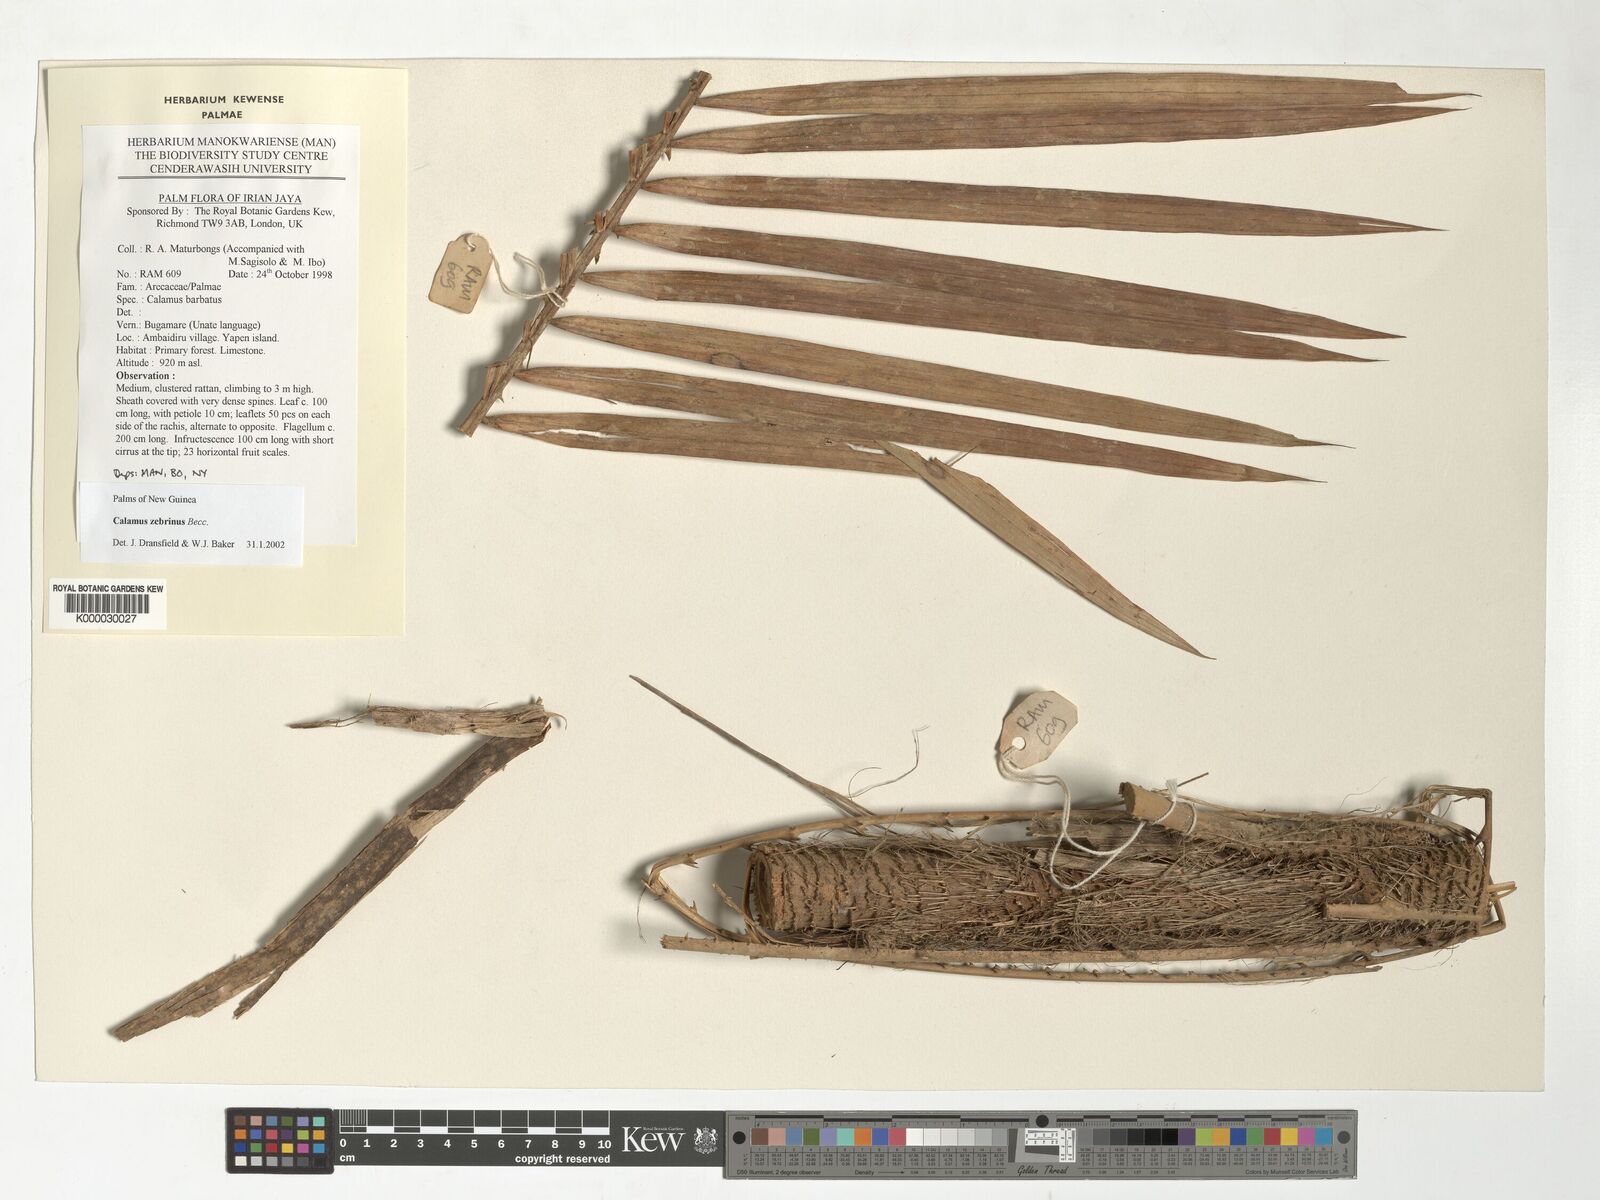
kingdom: Plantae
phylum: Tracheophyta
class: Liliopsida
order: Arecales
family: Arecaceae
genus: Calamus
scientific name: Calamus zebrinus
